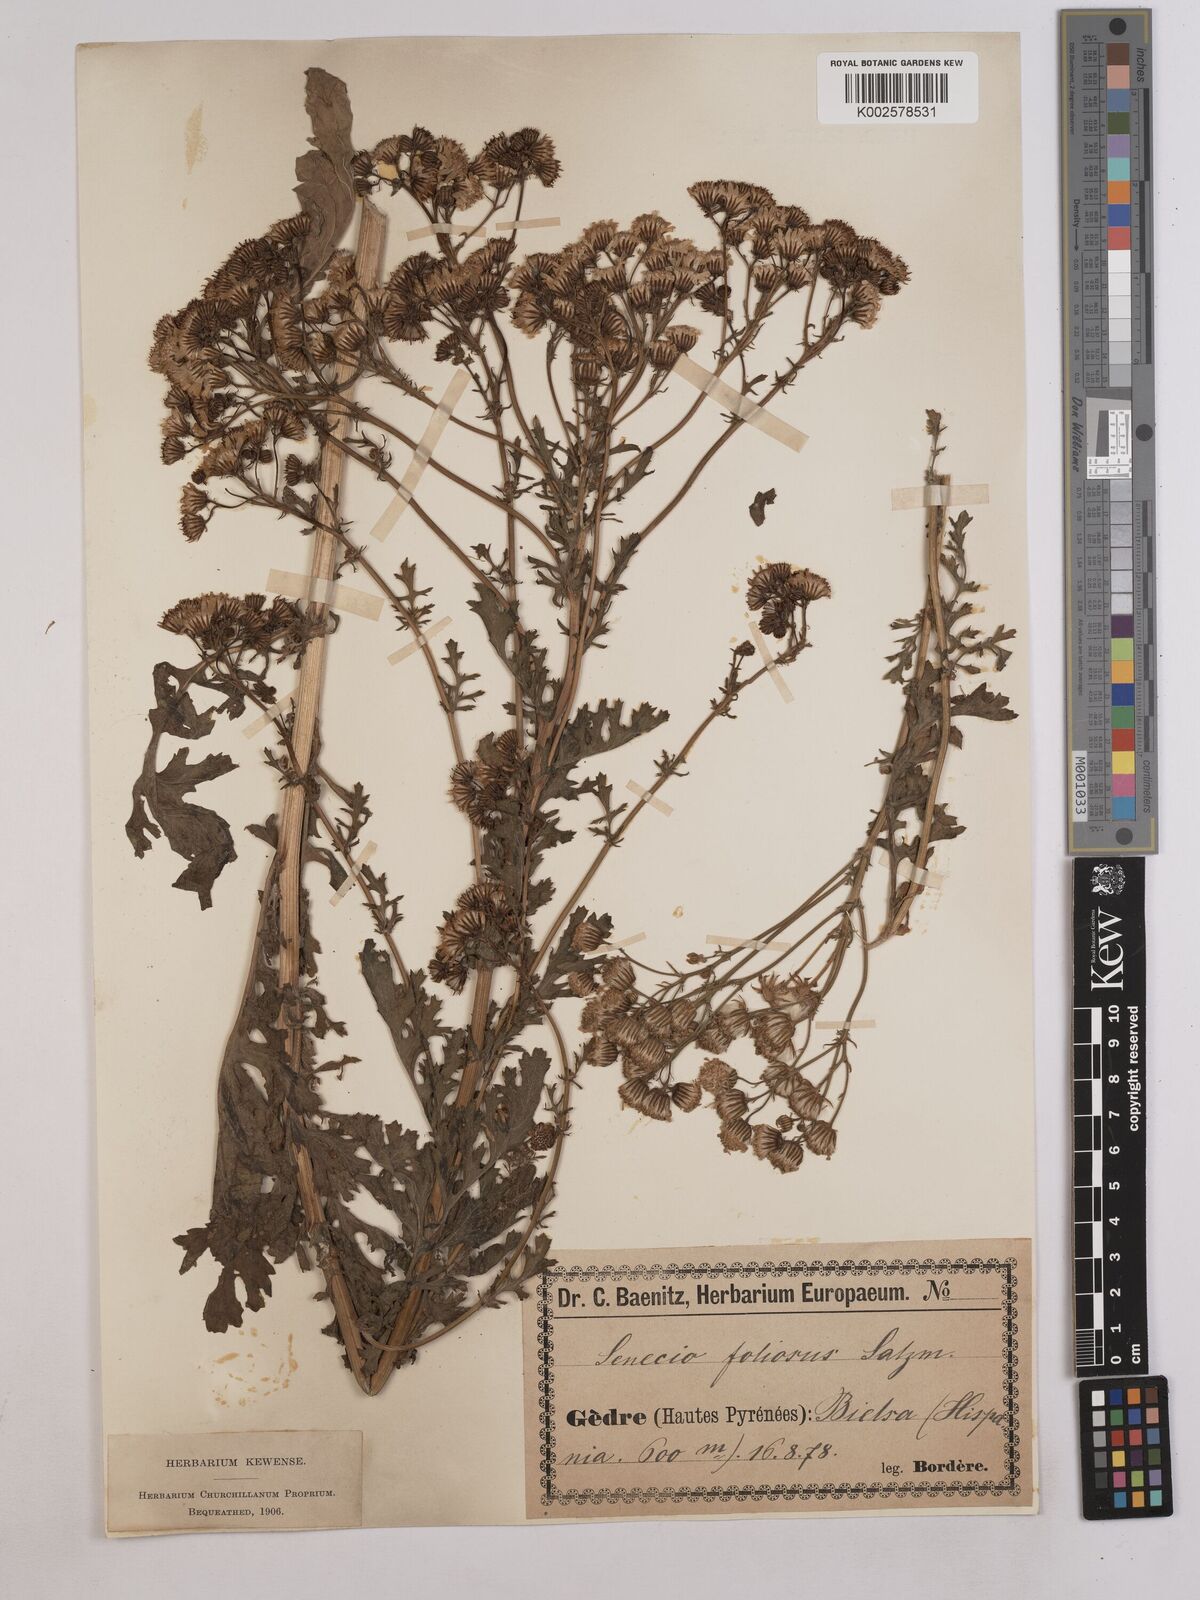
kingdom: Plantae
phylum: Tracheophyta
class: Magnoliopsida
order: Asterales
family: Asteraceae
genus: Jacobaea
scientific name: Jacobaea vulgaris
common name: Stinking willie
